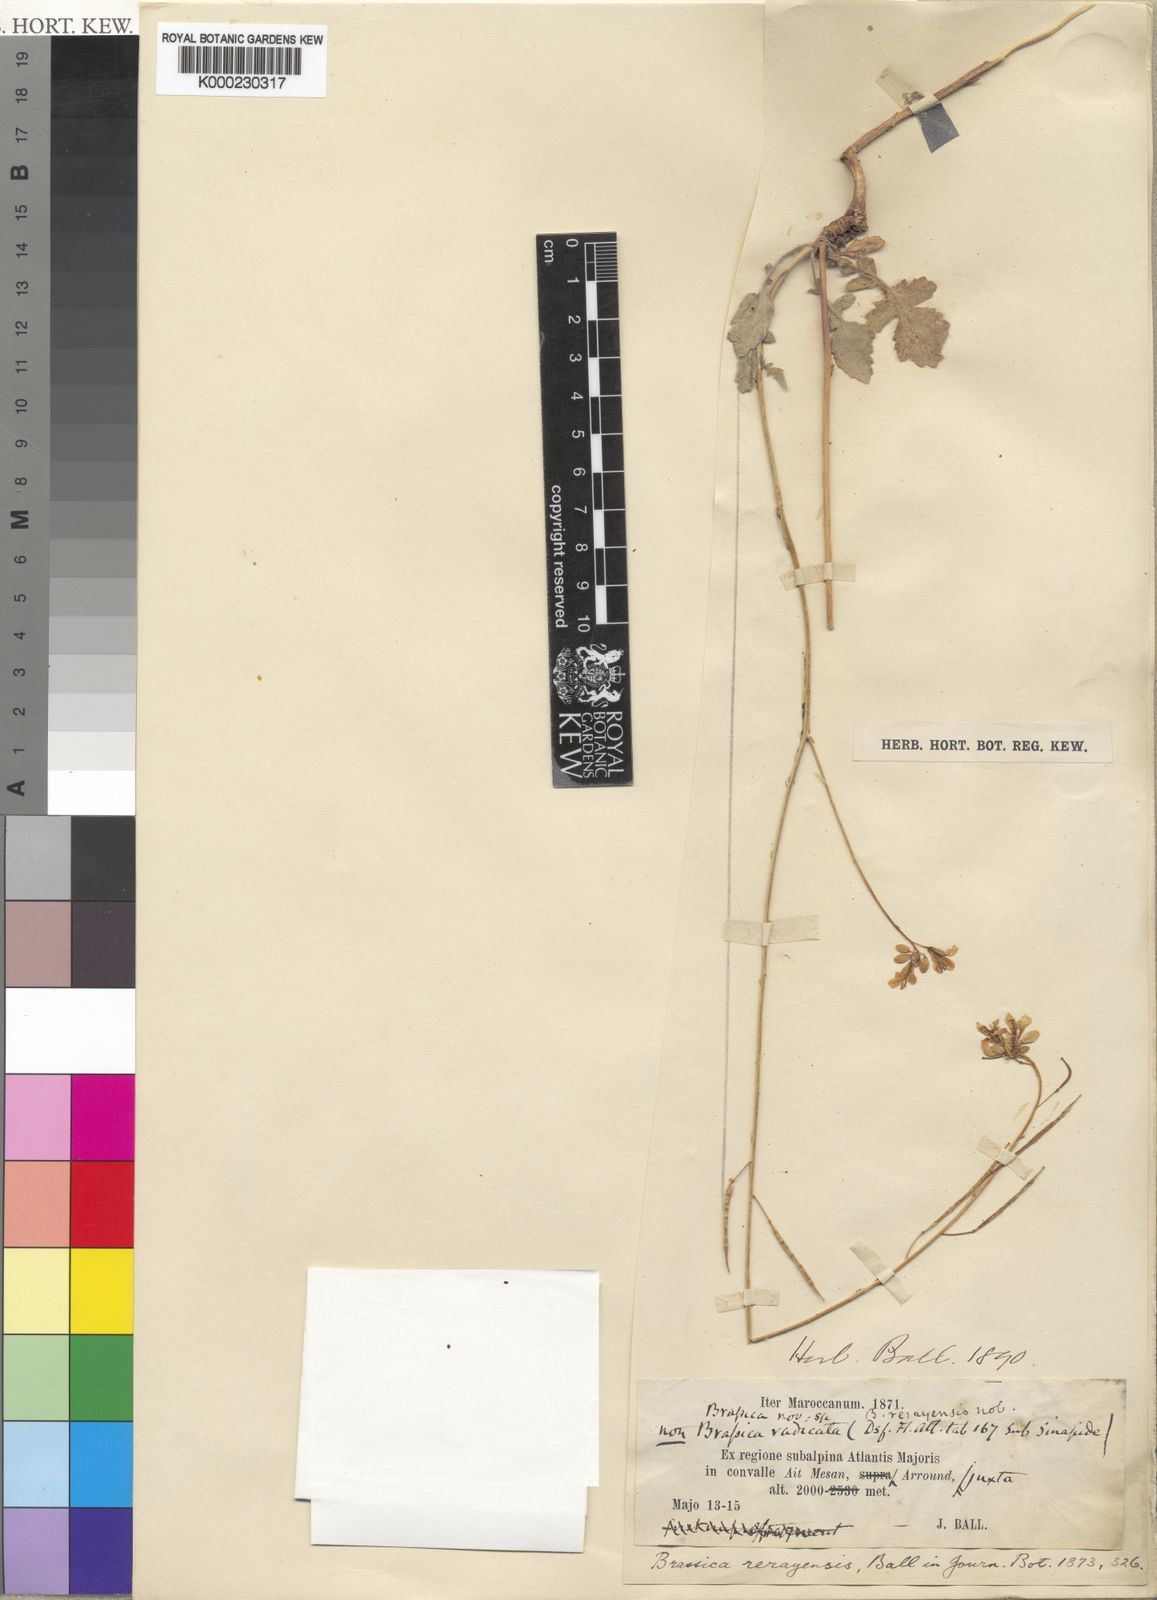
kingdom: Plantae
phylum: Tracheophyta
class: Magnoliopsida
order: Brassicales
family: Brassicaceae
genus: Erucastrum
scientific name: Erucastrum elatum
